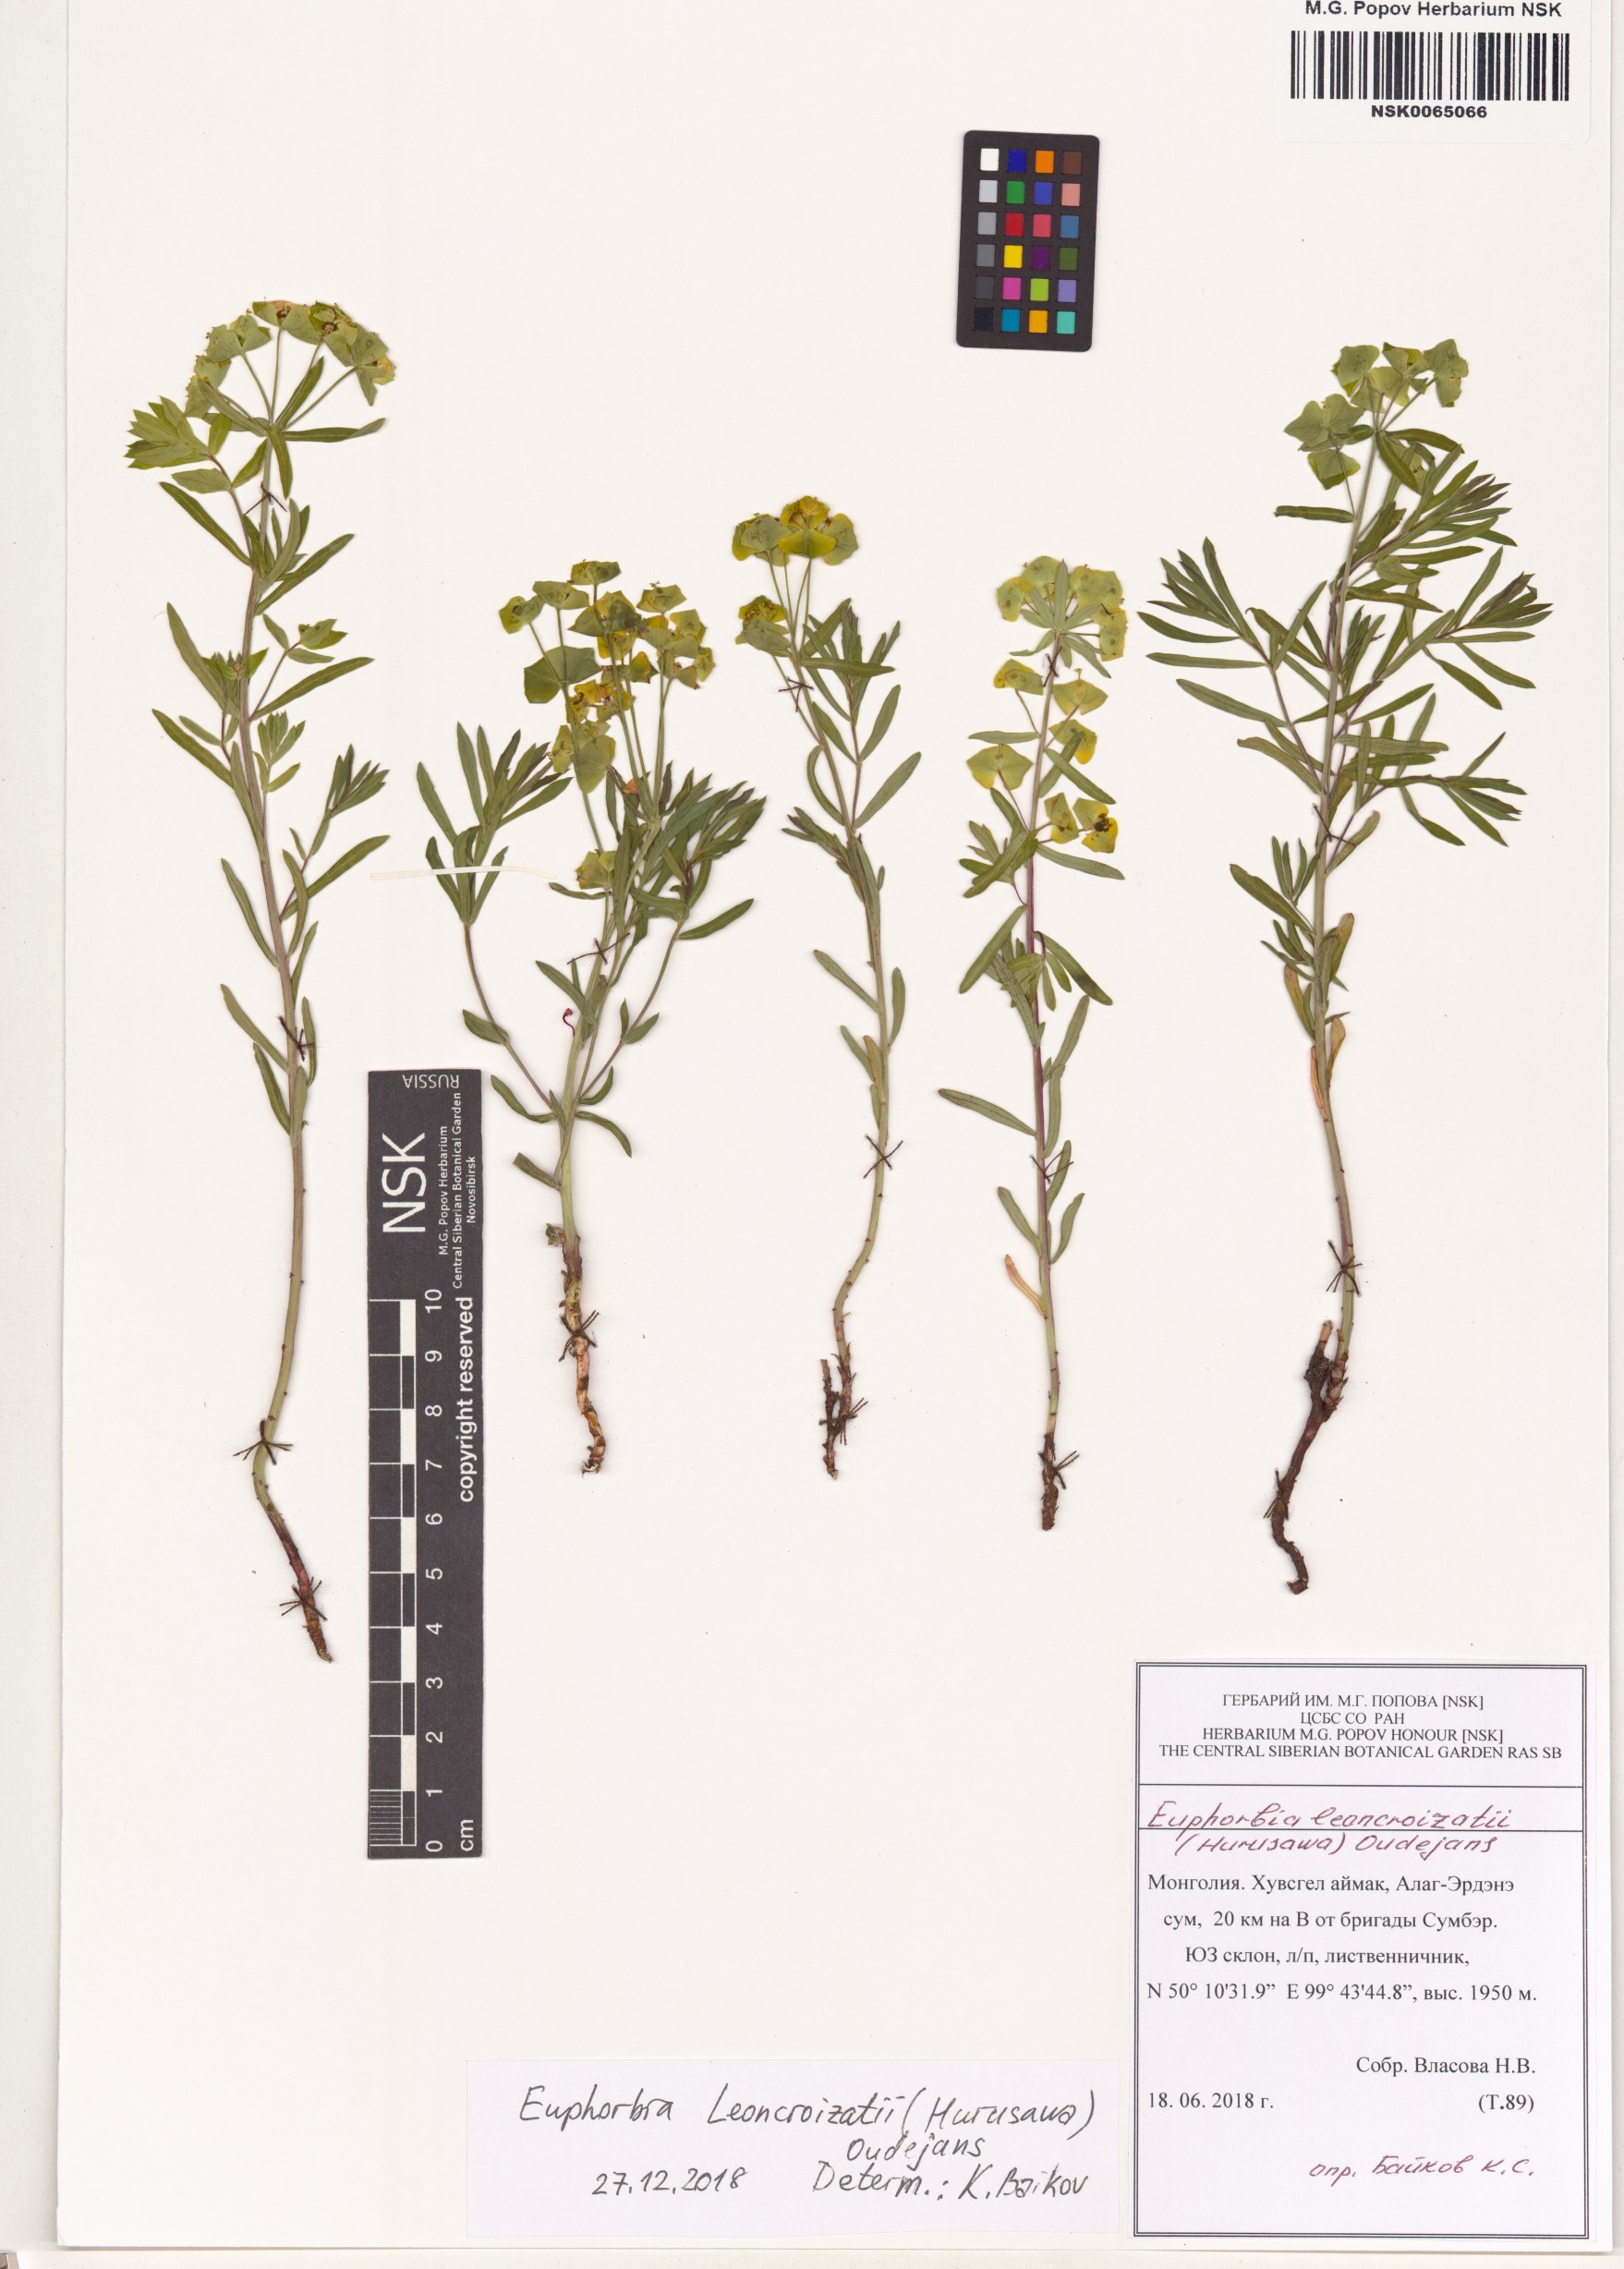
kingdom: Plantae
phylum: Tracheophyta
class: Magnoliopsida
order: Malpighiales
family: Euphorbiaceae
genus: Euphorbia
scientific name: Euphorbia esula
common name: Leafy spurge
